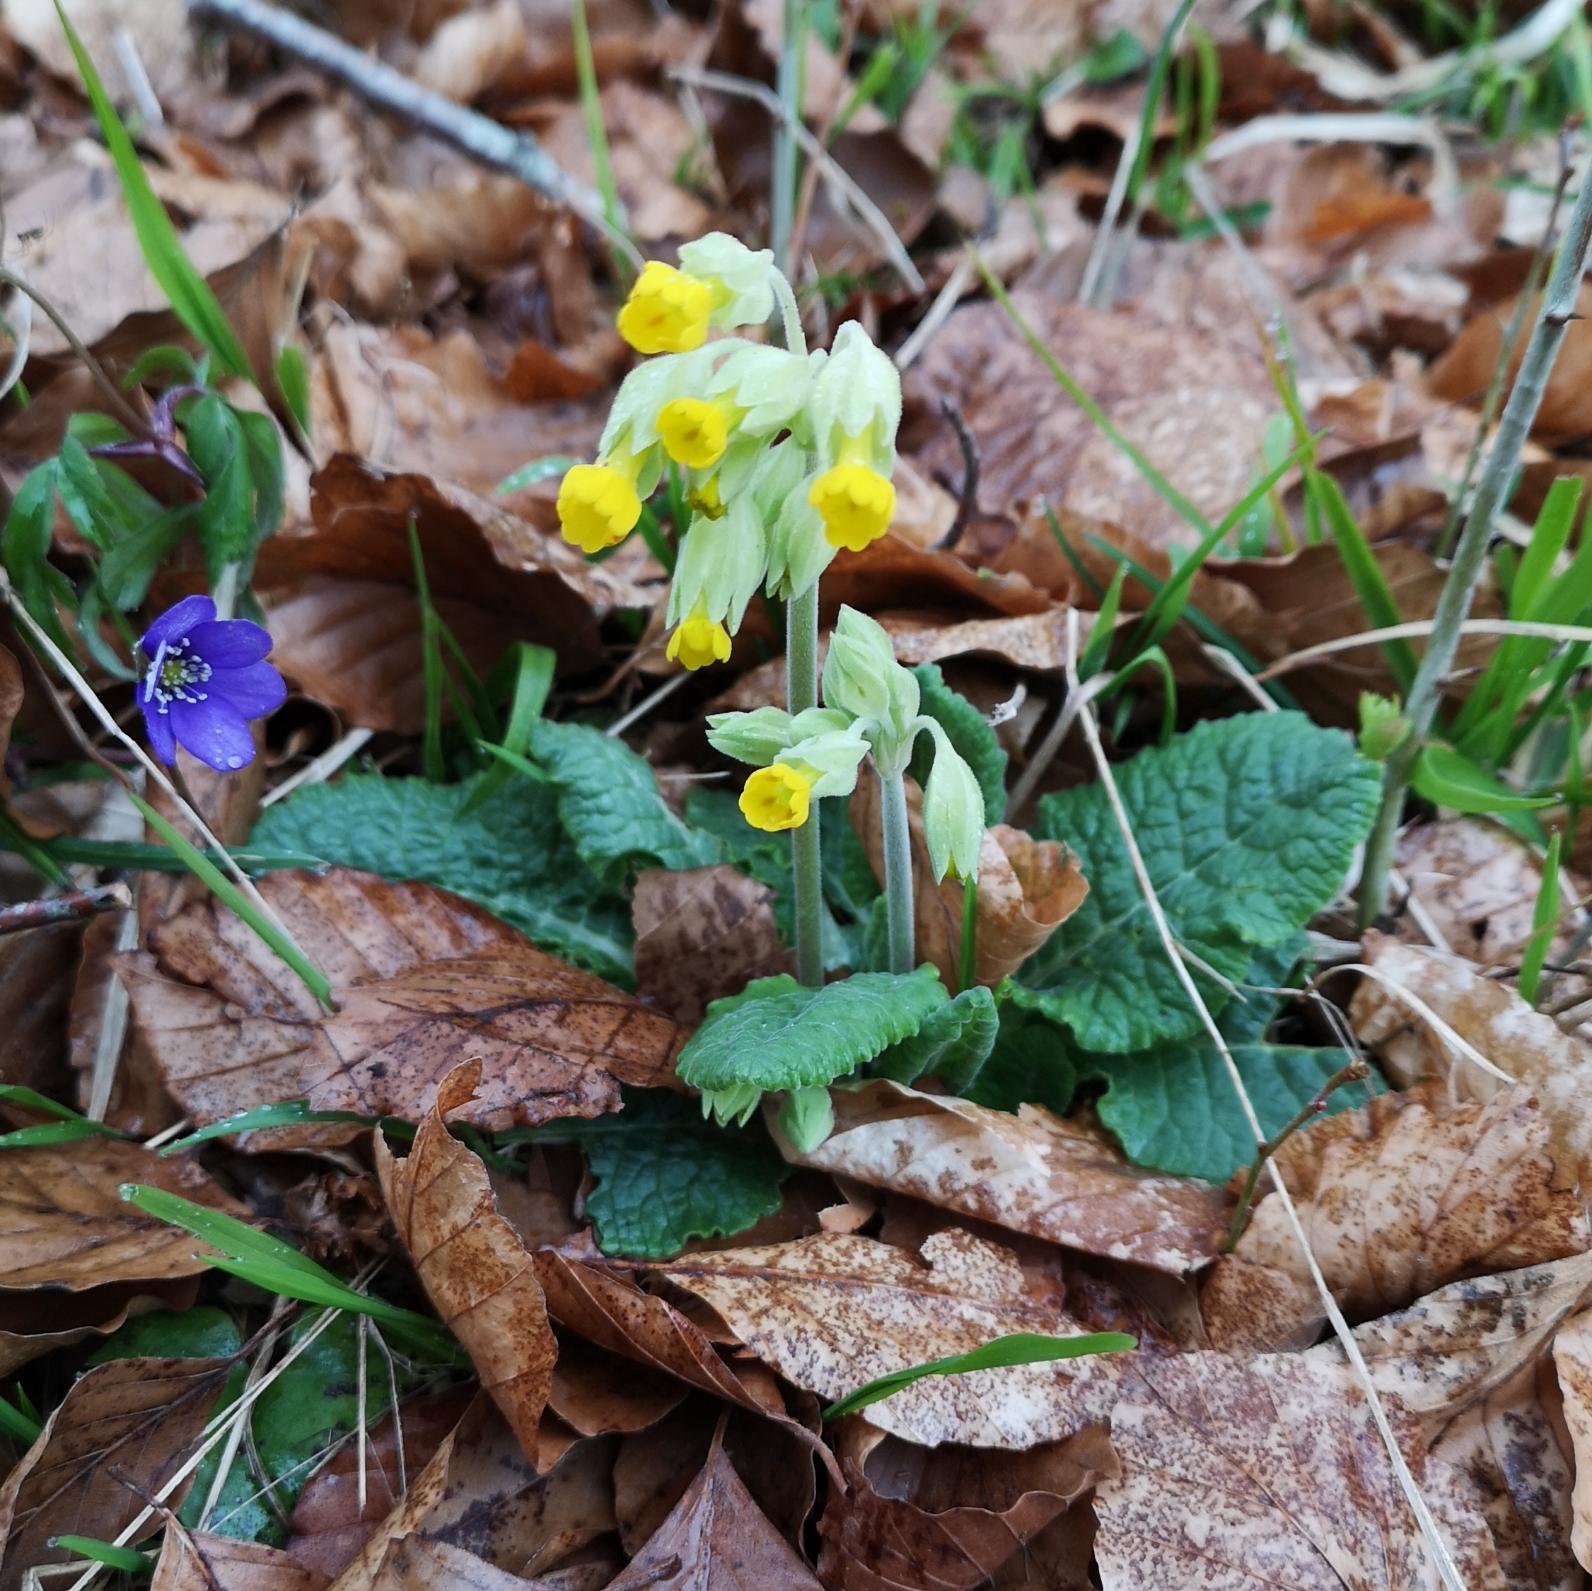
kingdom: Plantae
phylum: Tracheophyta
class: Magnoliopsida
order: Ericales
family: Primulaceae
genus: Primula
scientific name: Primula veris
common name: Hulkravet kodriver
